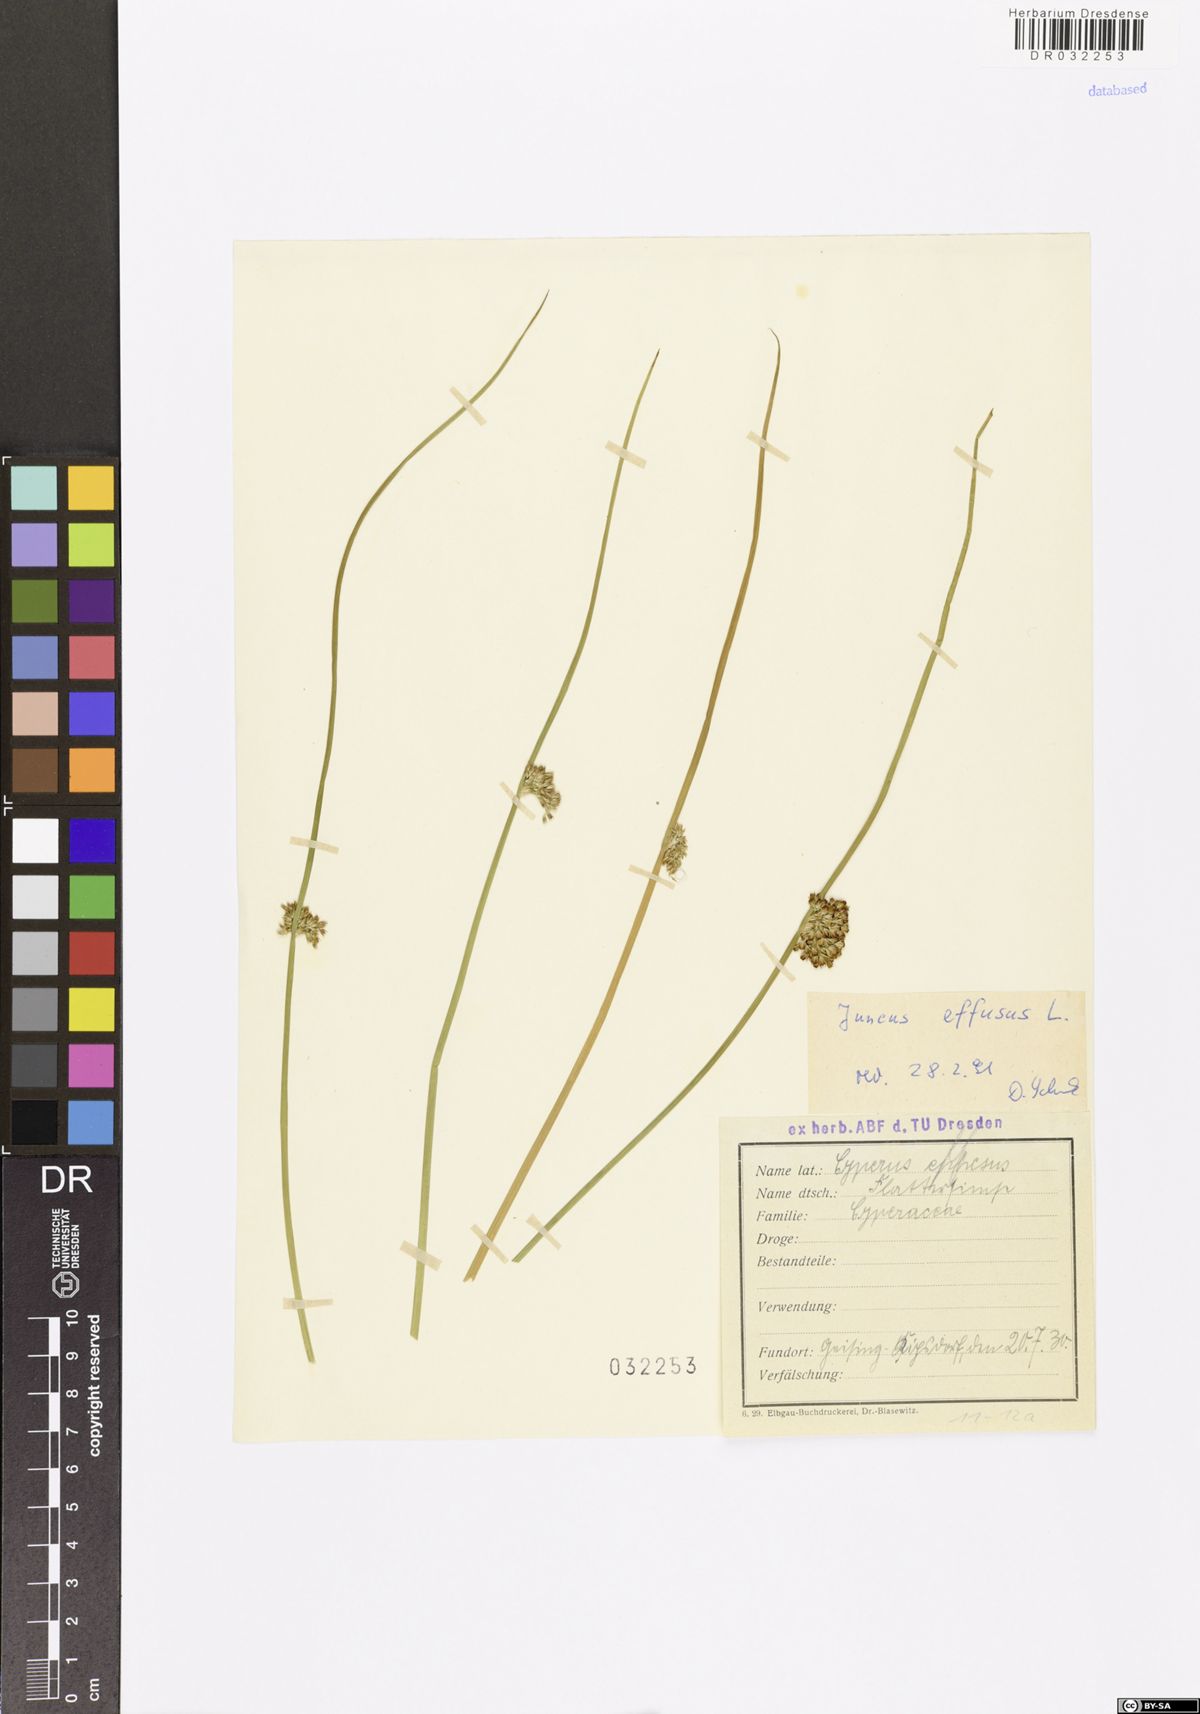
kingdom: Plantae
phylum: Tracheophyta
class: Liliopsida
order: Poales
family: Juncaceae
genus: Juncus
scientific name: Juncus effusus
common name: Soft rush
